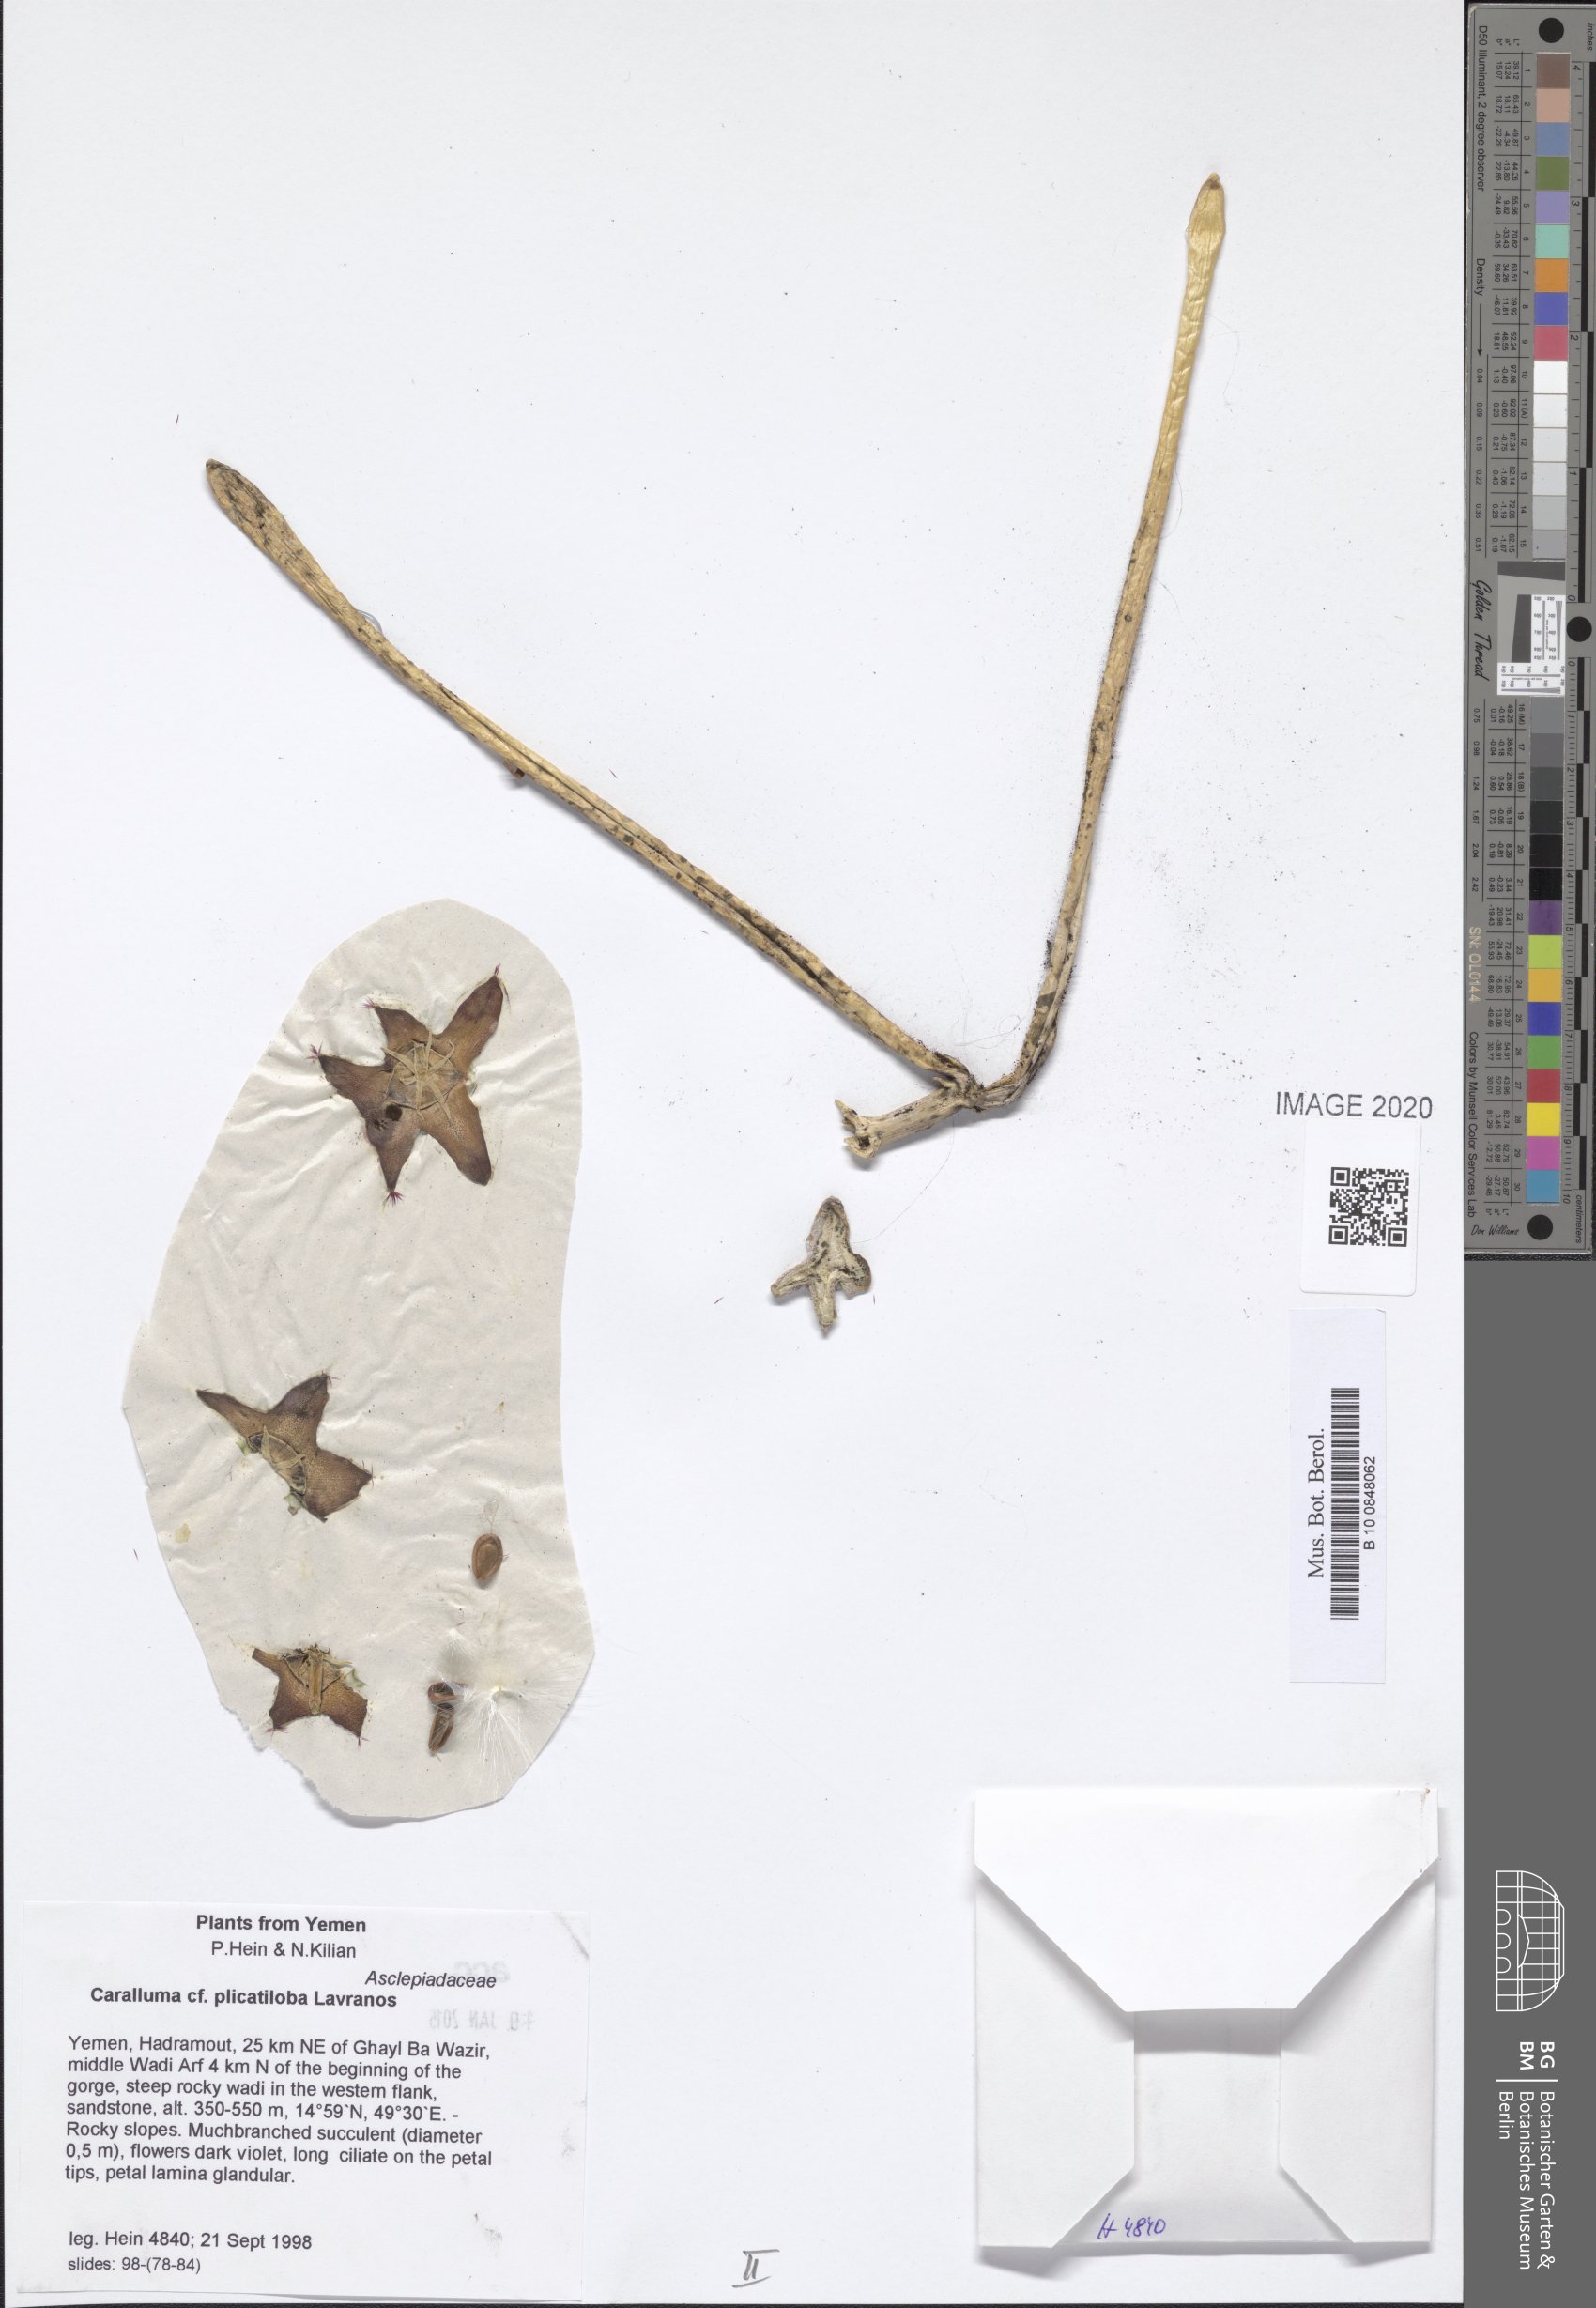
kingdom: Plantae
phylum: Tracheophyta
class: Magnoliopsida
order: Gentianales
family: Apocynaceae
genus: Ceropegia
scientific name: Ceropegia plicatiloba
